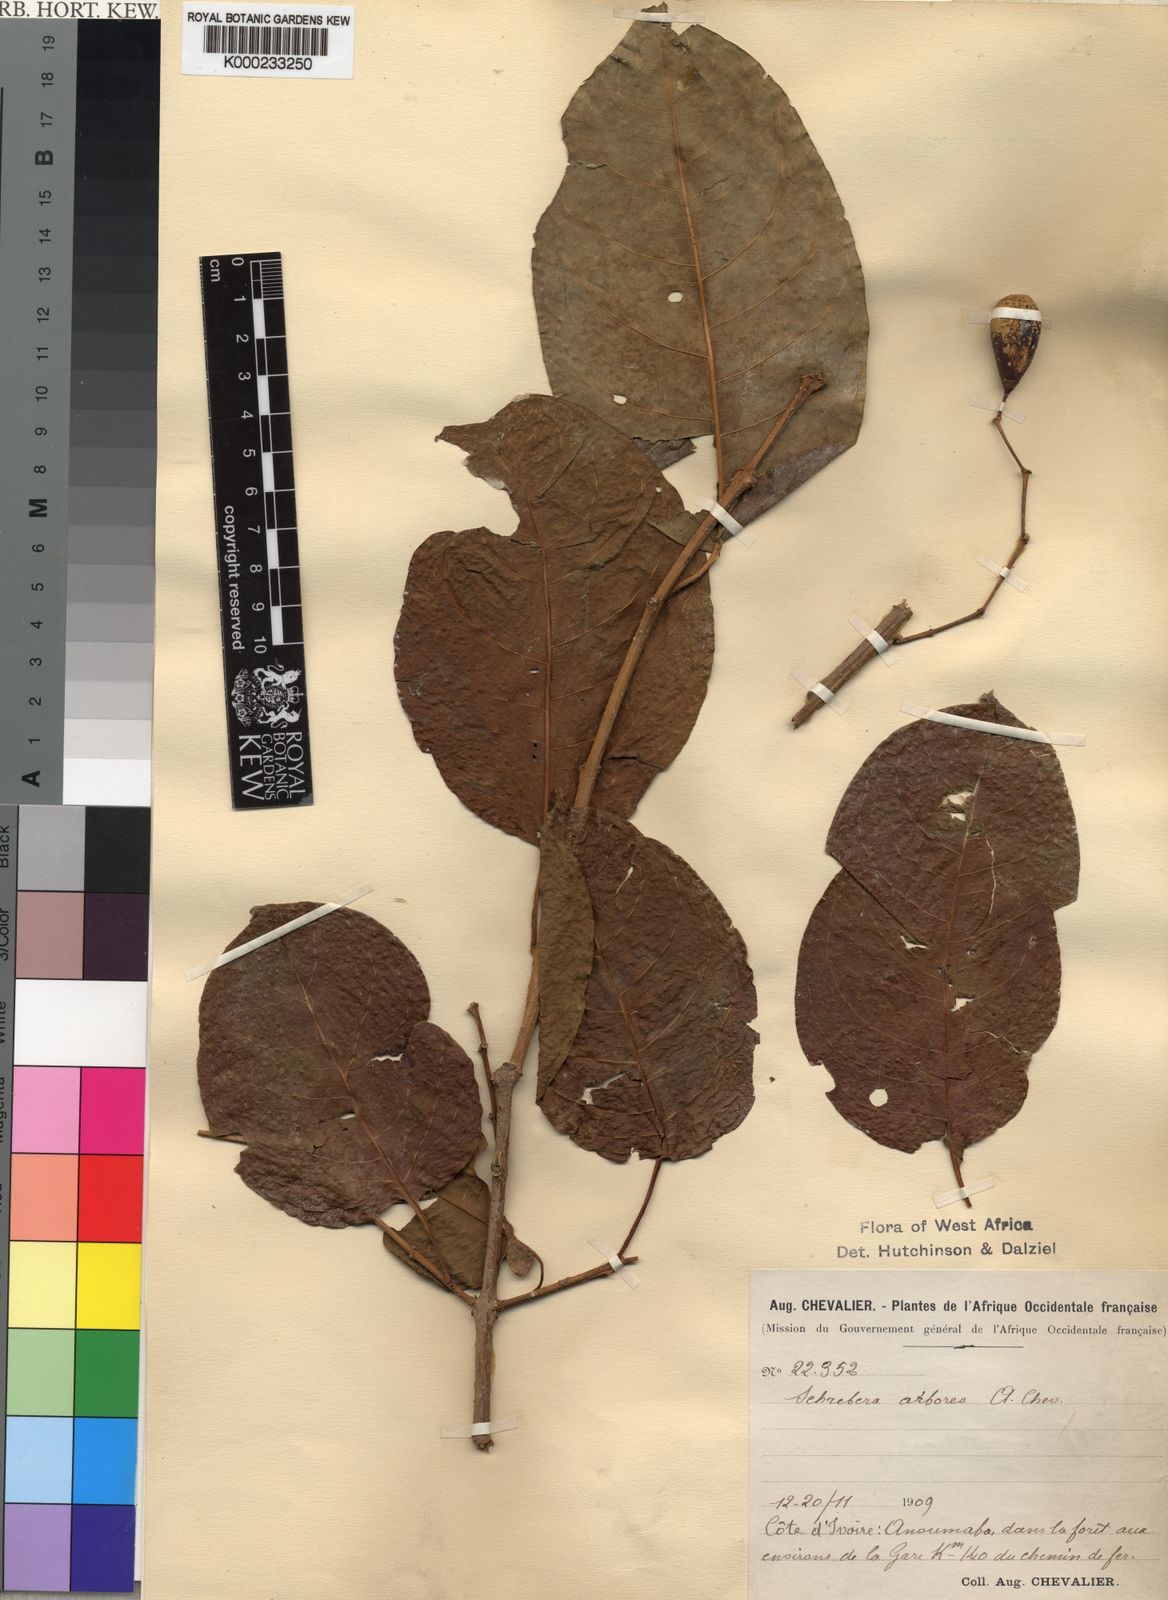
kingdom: Plantae
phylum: Tracheophyta
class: Magnoliopsida
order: Lamiales
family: Oleaceae
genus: Schrebera
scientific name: Schrebera arborea
